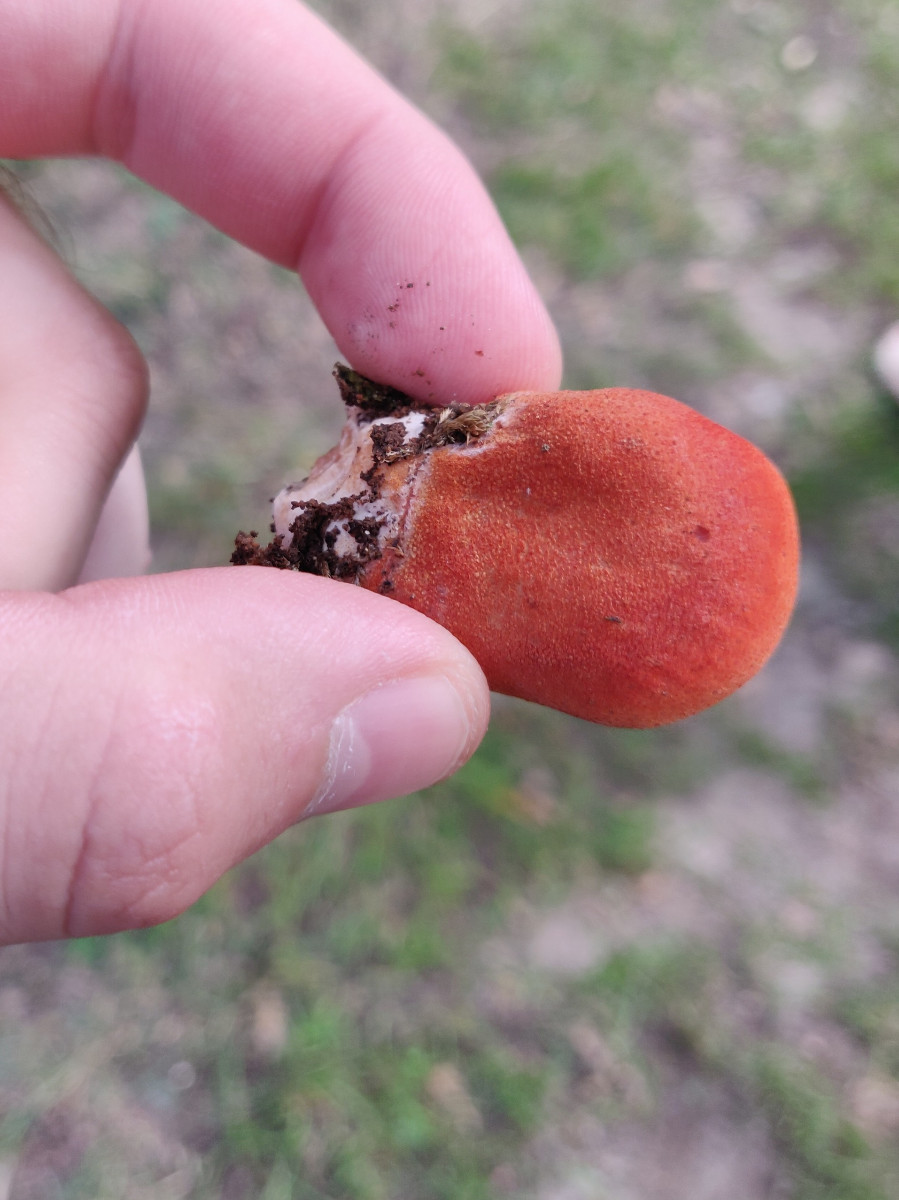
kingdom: Fungi
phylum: Basidiomycota
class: Agaricomycetes
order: Agaricales
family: Fistulinaceae
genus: Fistulina
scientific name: Fistulina hepatica
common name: oksetunge
